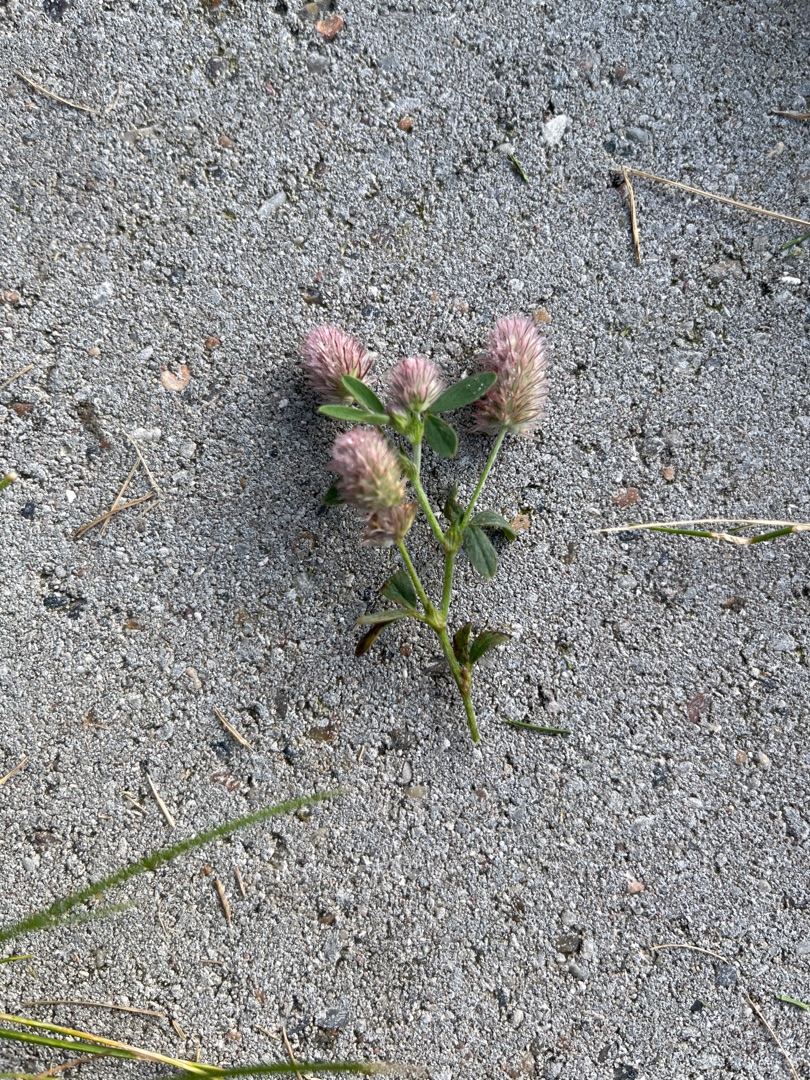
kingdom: Plantae
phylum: Tracheophyta
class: Magnoliopsida
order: Fabales
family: Fabaceae
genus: Trifolium
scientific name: Trifolium arvense
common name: Hare-kløver
